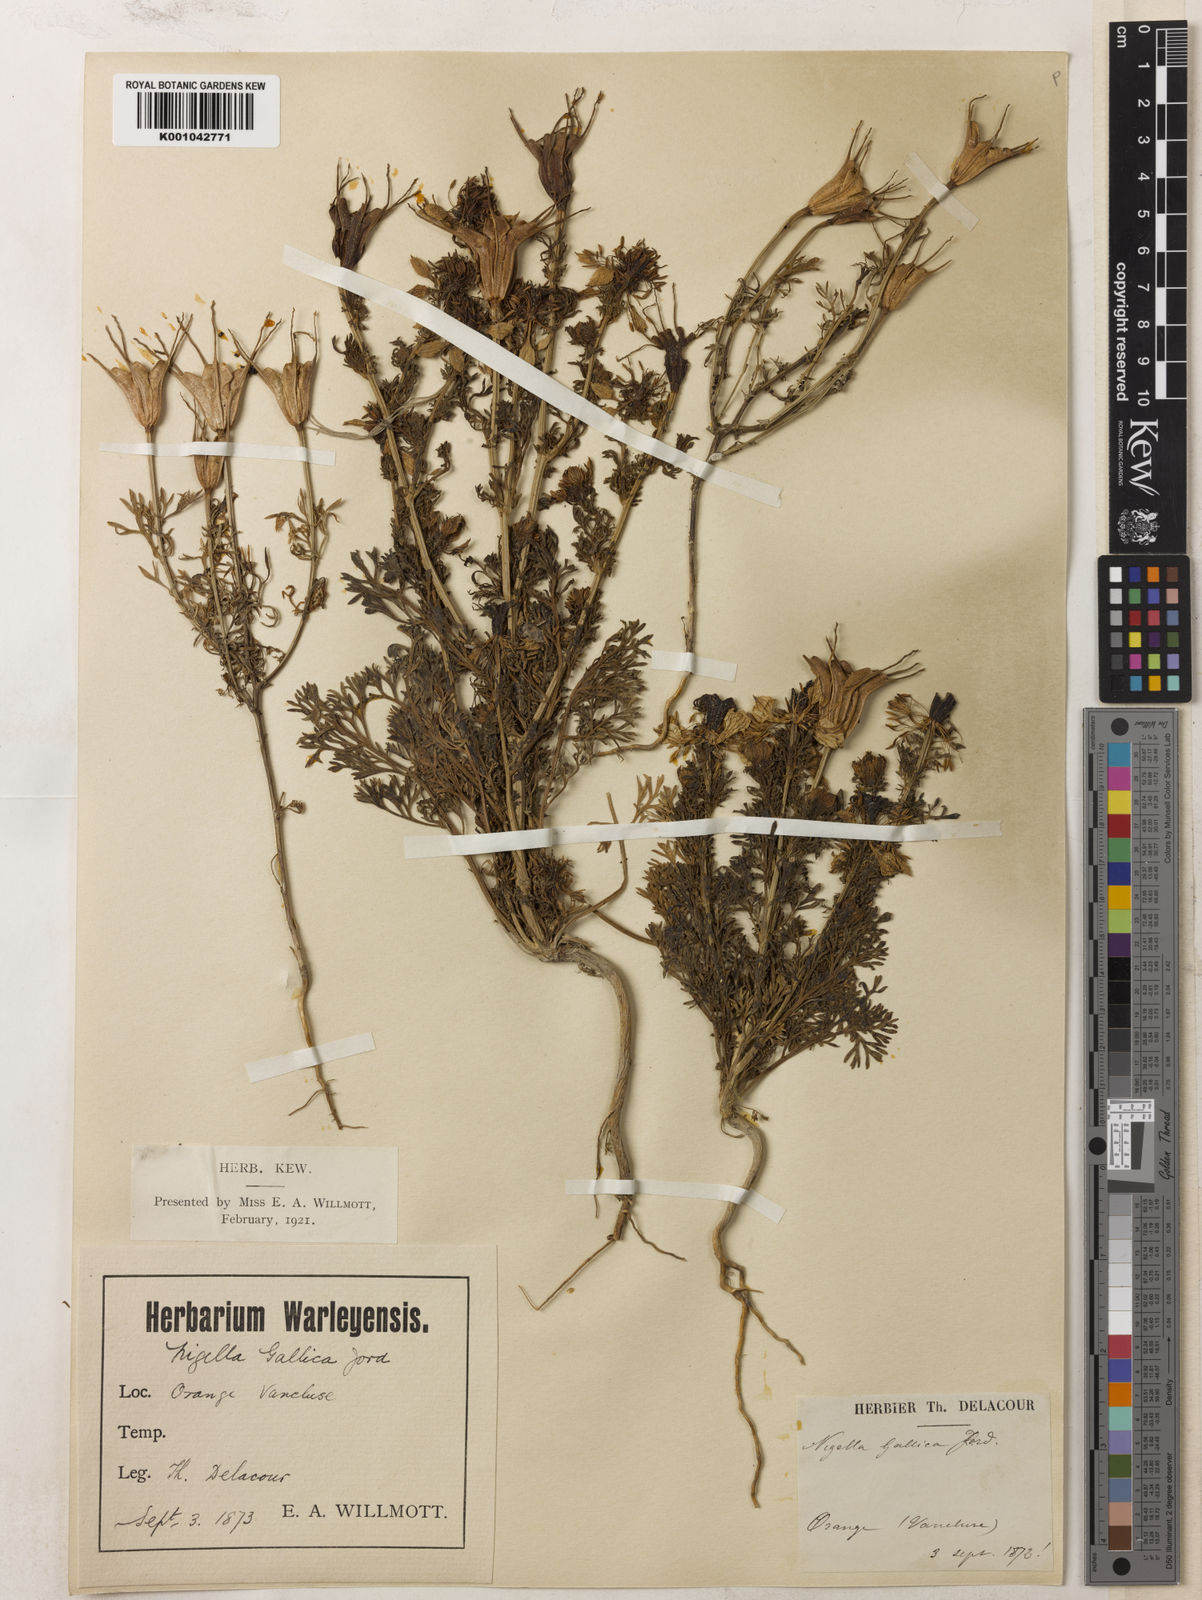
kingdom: Plantae
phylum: Tracheophyta
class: Magnoliopsida
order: Ranunculales
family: Ranunculaceae
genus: Nigella
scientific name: Nigella hispanica
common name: Fennel-flower
